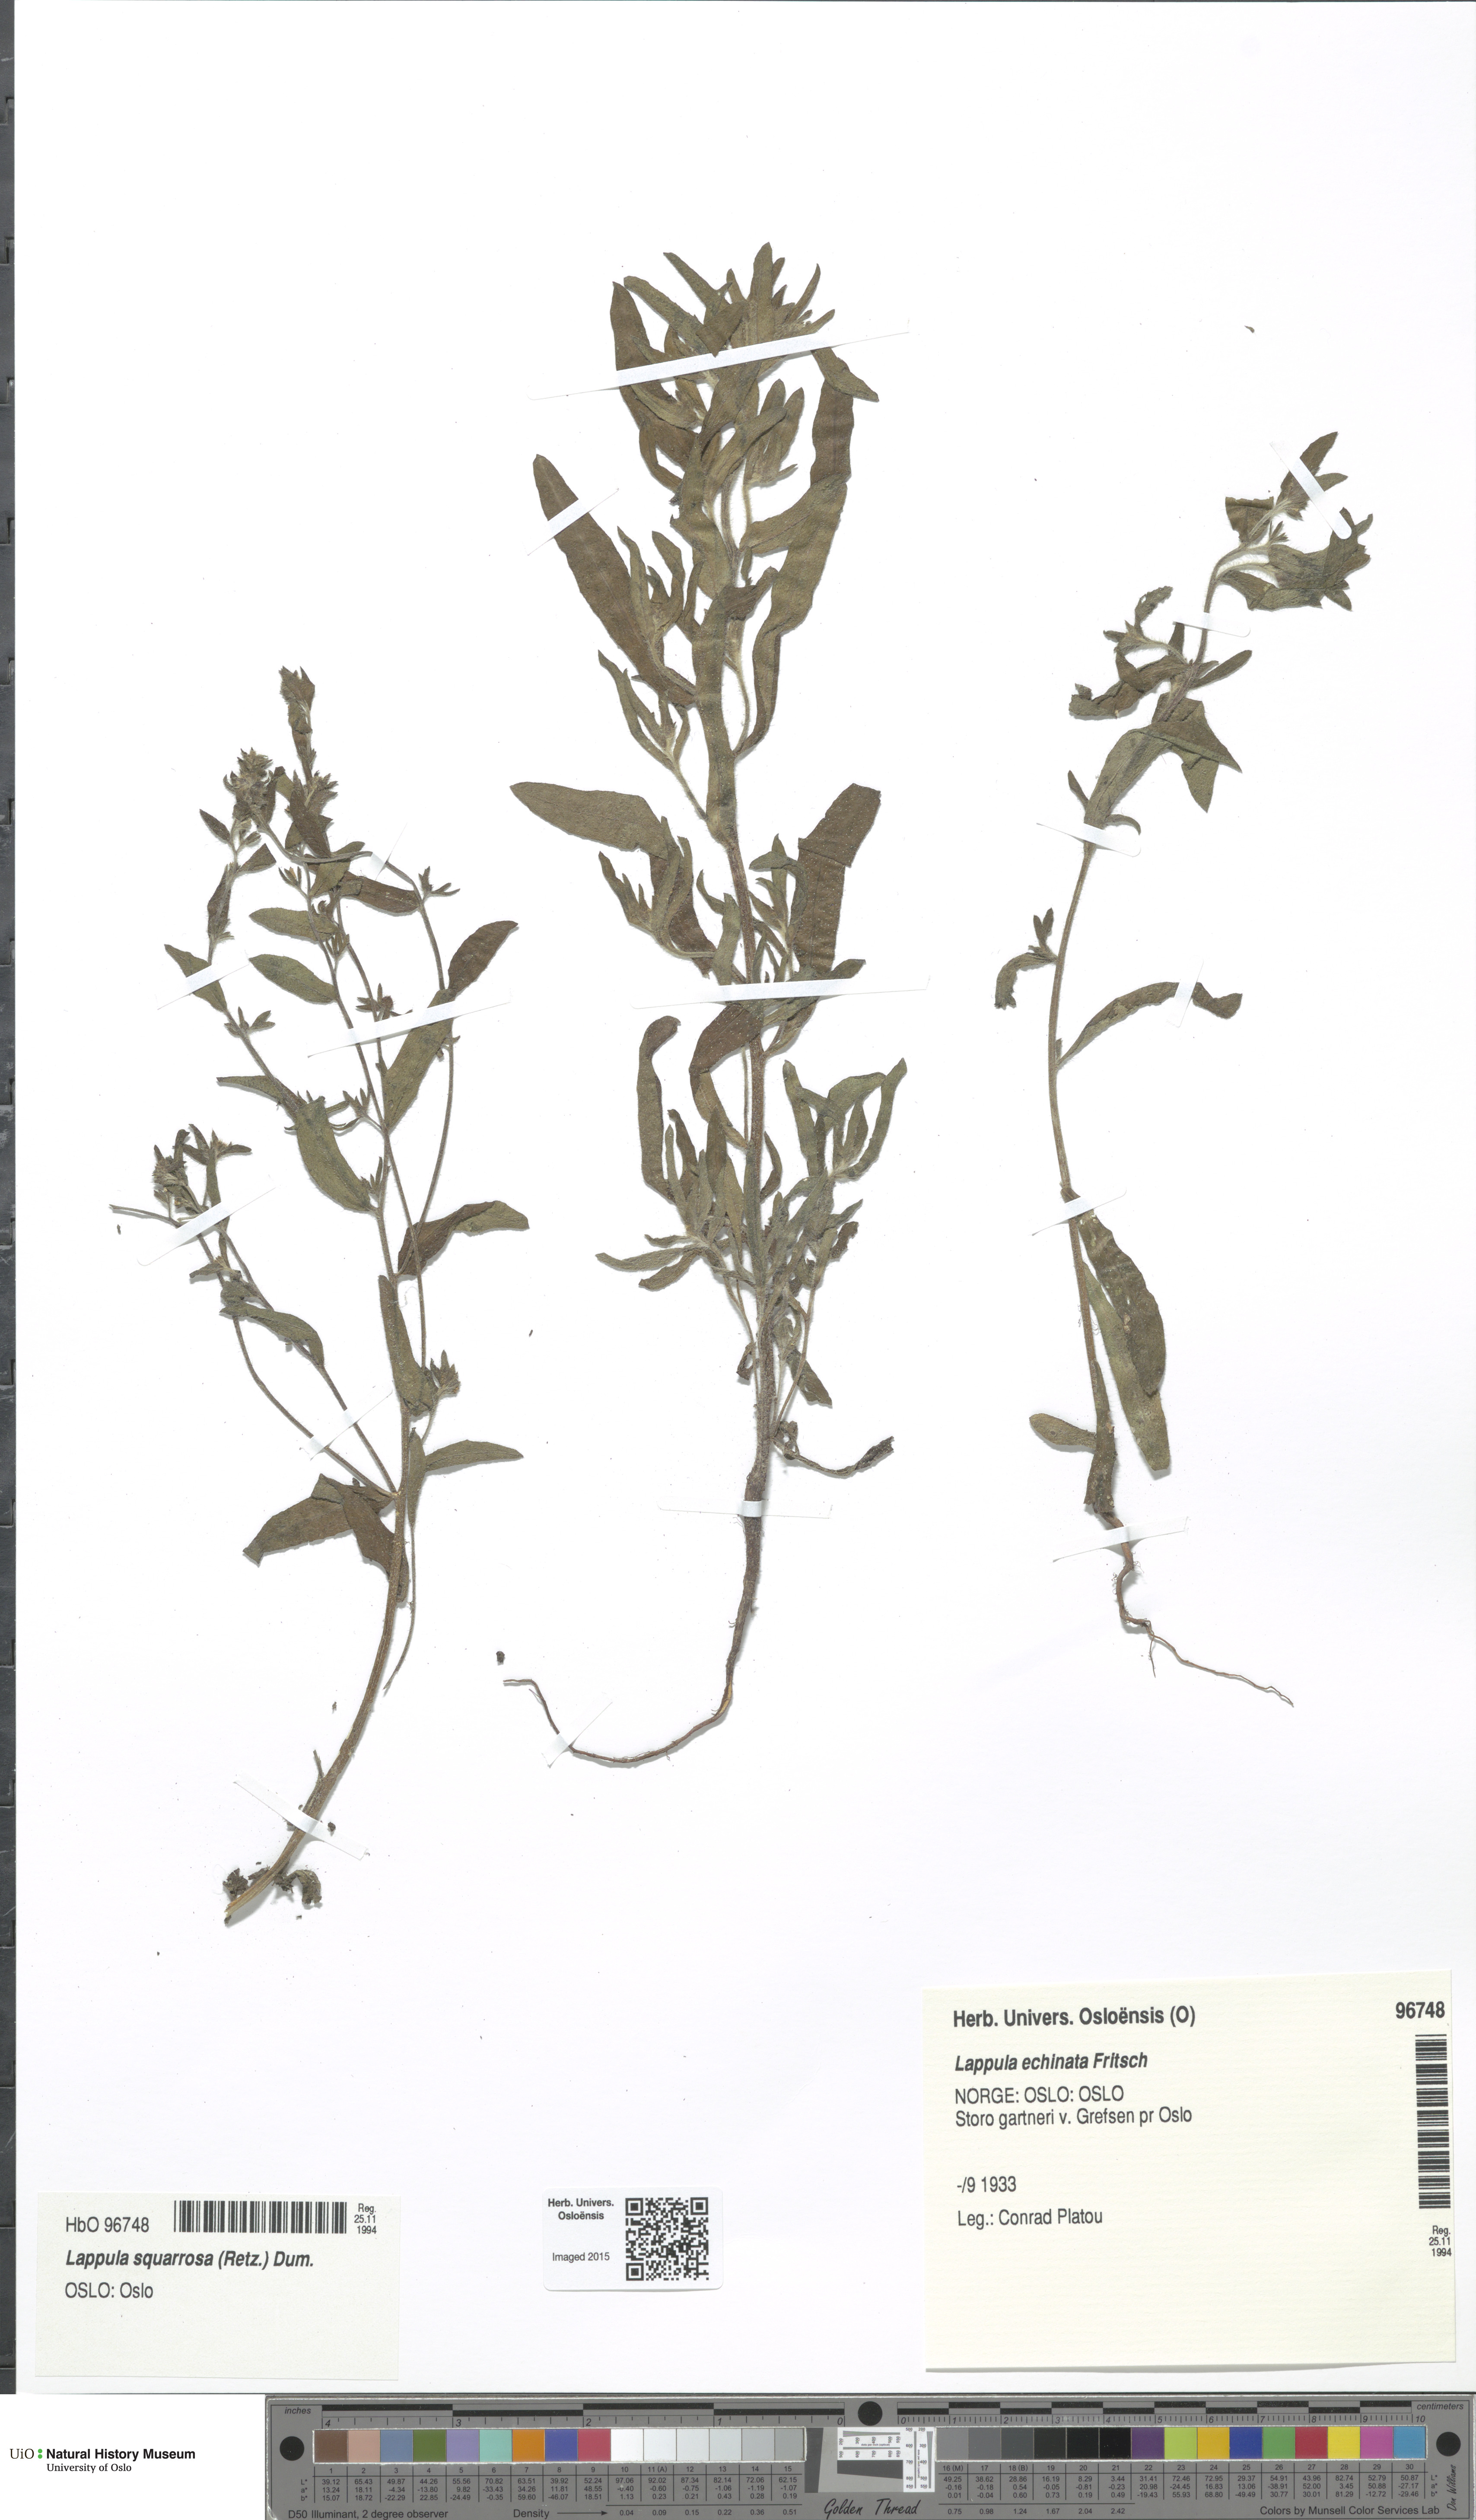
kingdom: Plantae
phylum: Tracheophyta
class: Magnoliopsida
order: Boraginales
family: Boraginaceae
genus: Lappula
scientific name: Lappula squarrosa
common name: European stickseed
